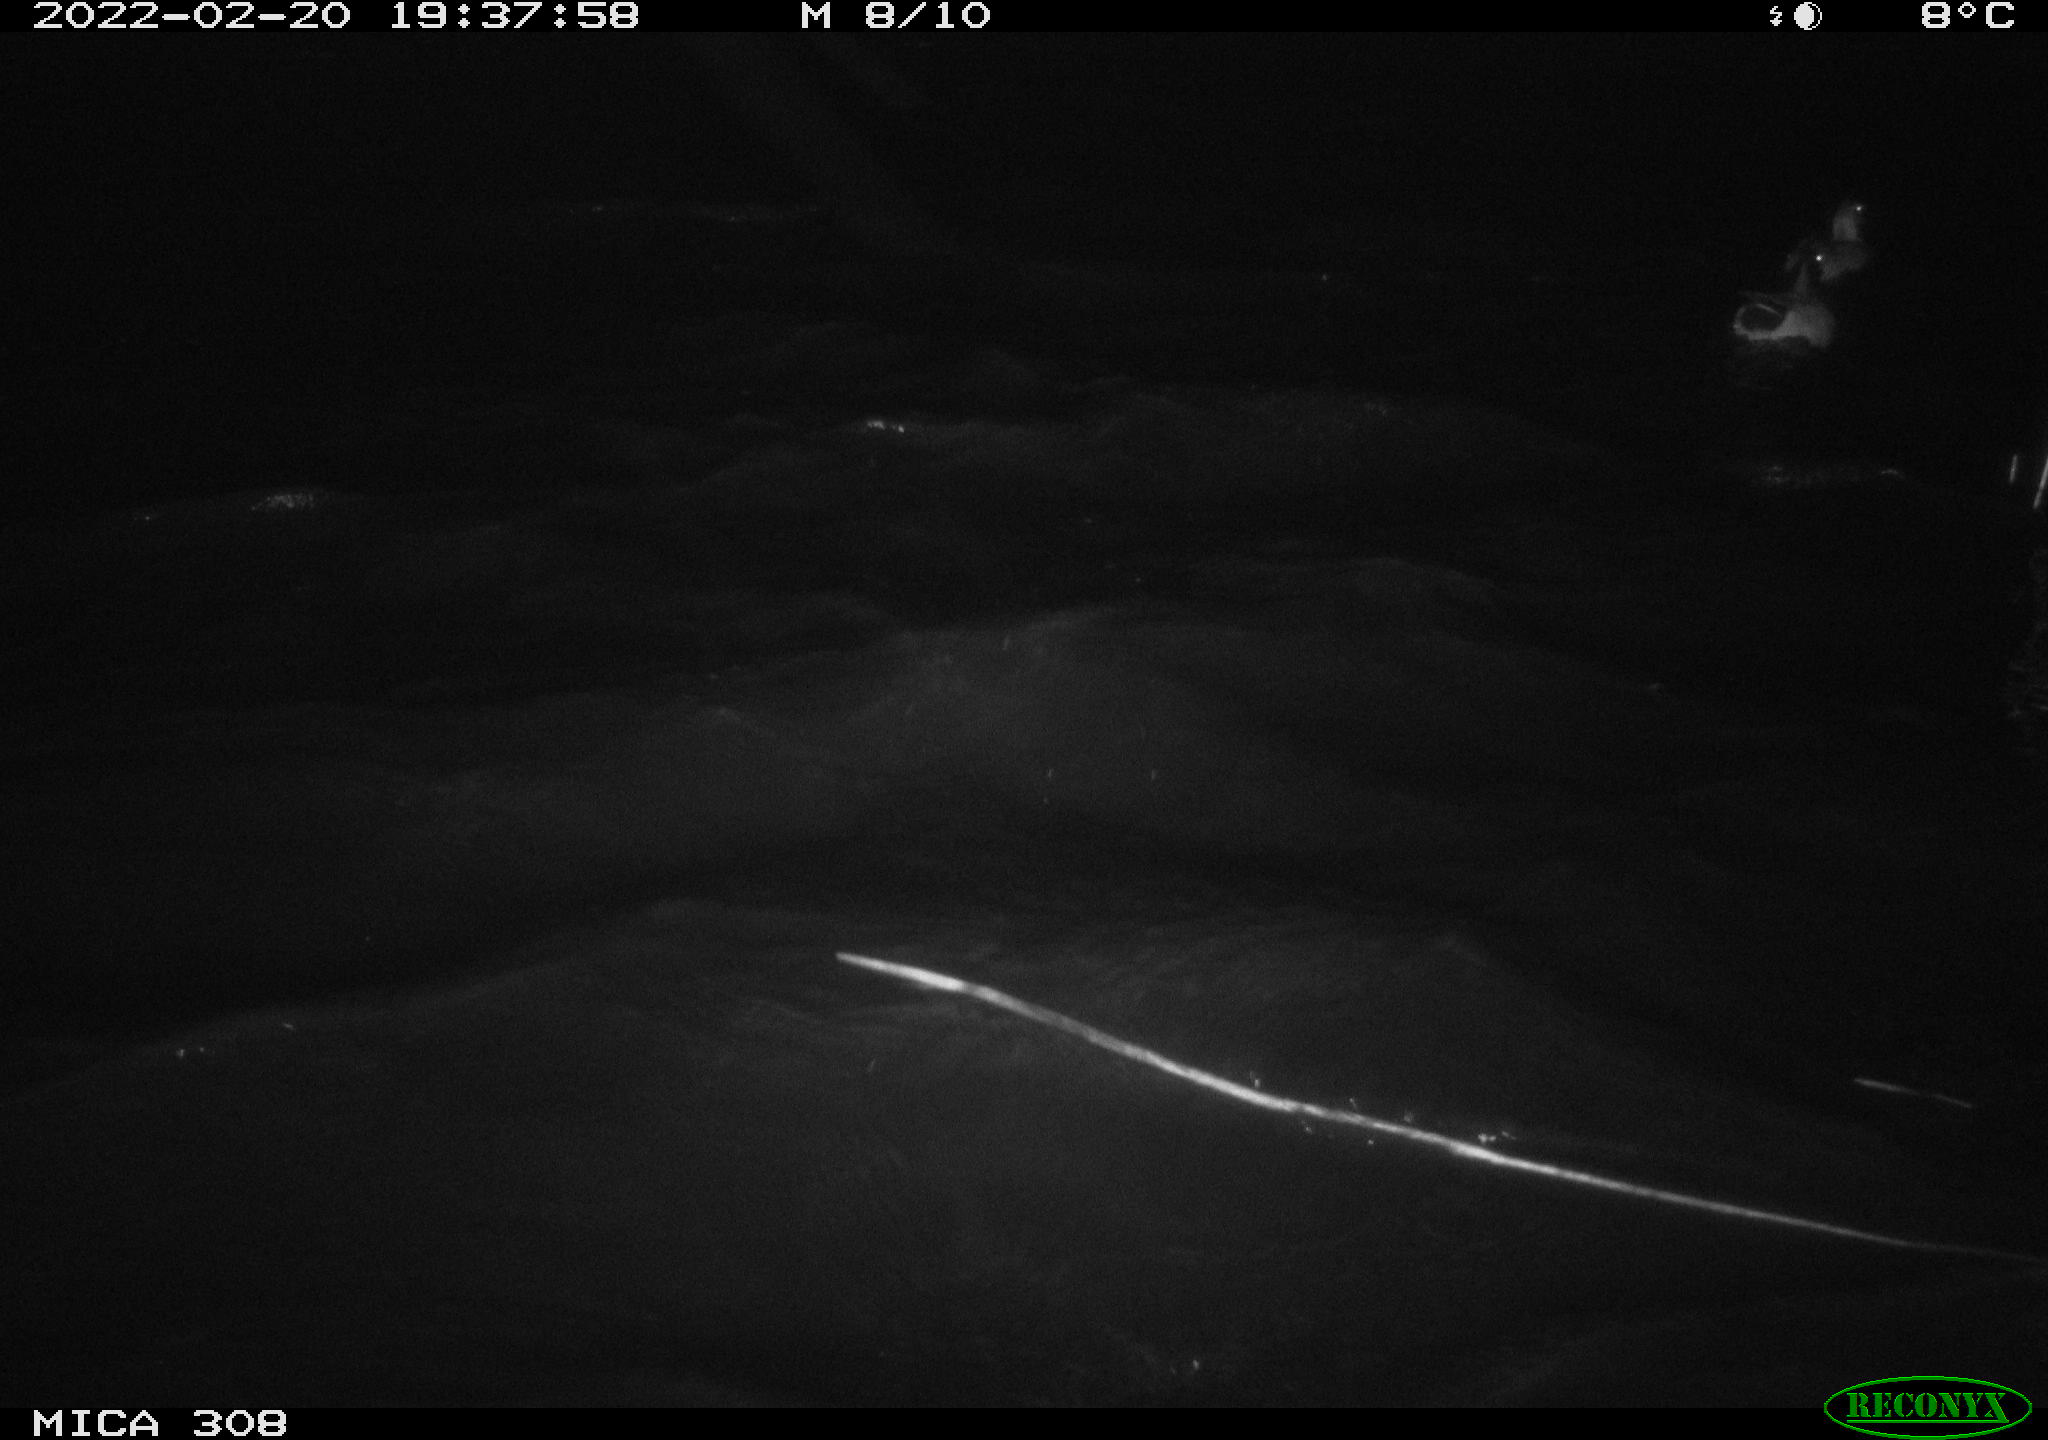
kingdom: Animalia
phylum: Chordata
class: Aves
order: Anseriformes
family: Anatidae
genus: Anas
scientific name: Anas platyrhynchos
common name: Mallard
